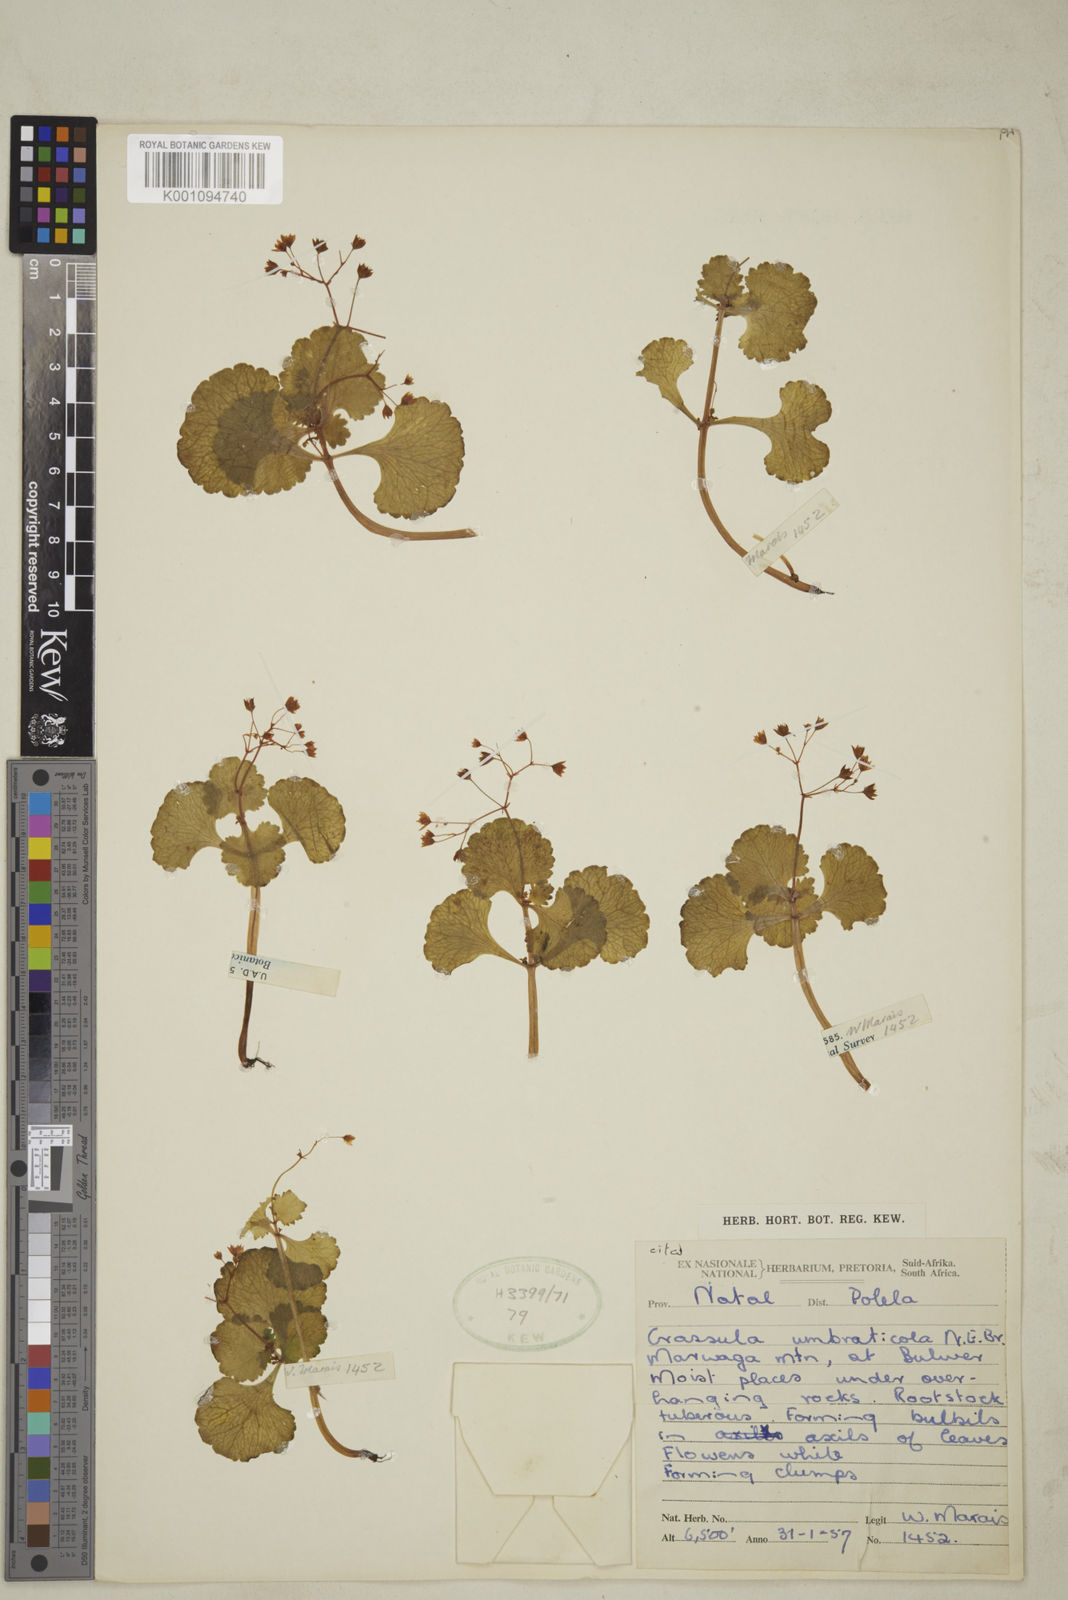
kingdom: Plantae
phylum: Tracheophyta
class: Magnoliopsida
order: Saxifragales
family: Crassulaceae
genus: Crassula
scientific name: Crassula umbraticola
